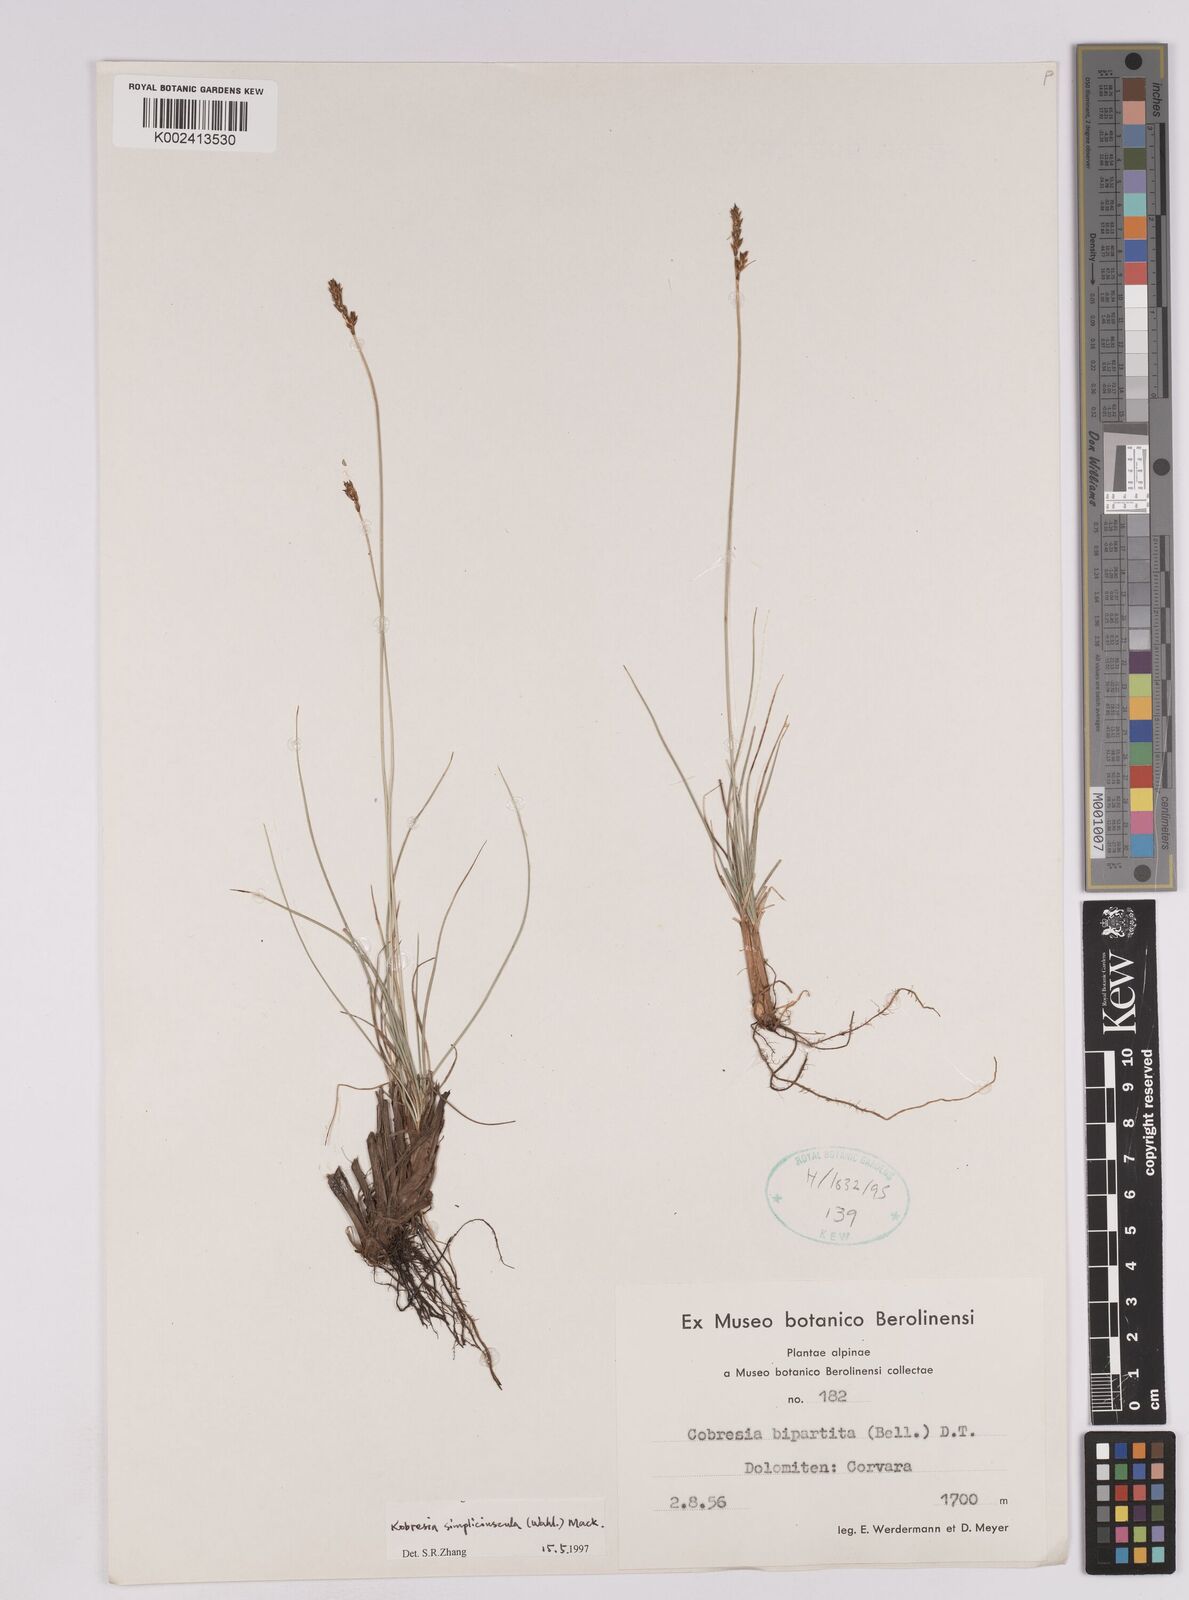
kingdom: Plantae
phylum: Tracheophyta
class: Liliopsida
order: Poales
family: Cyperaceae
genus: Carex
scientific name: Carex simpliciuscula
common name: Simple bog sedge
